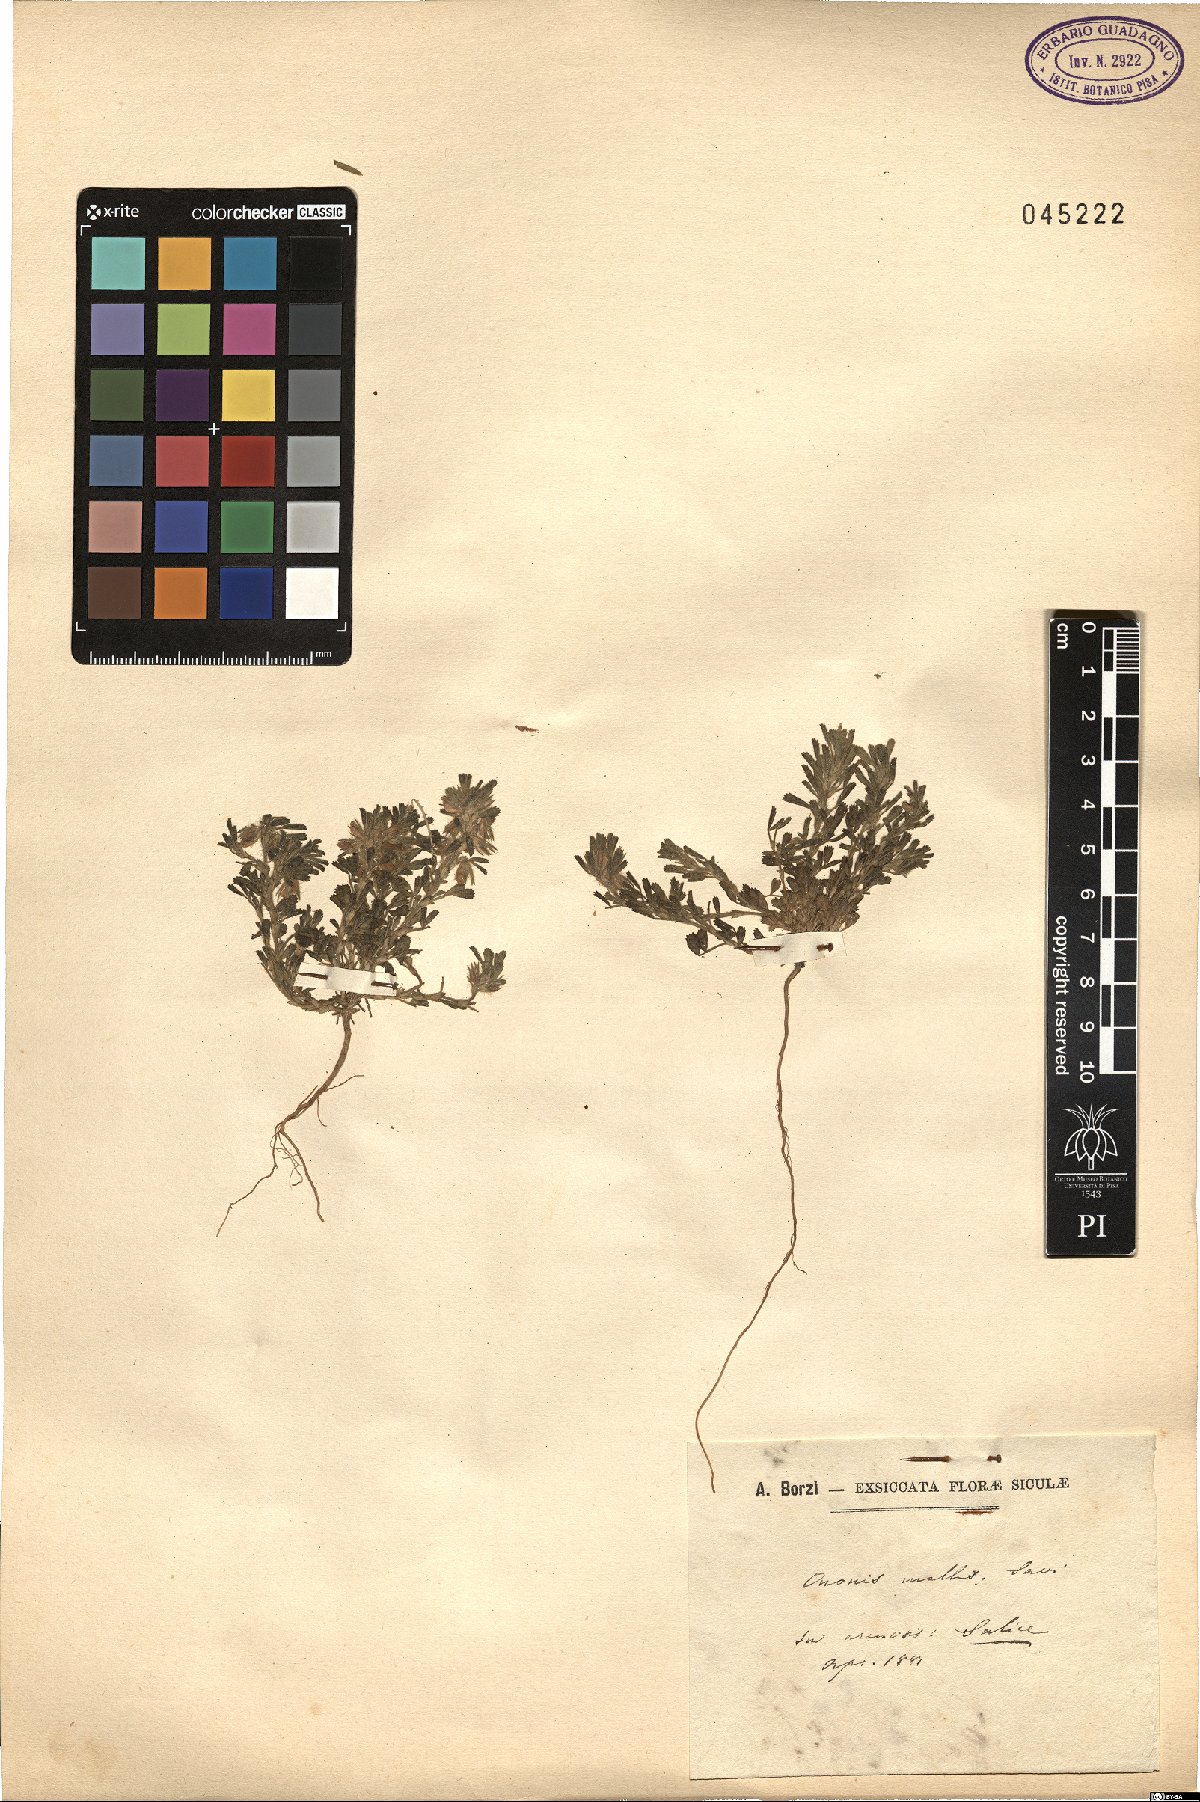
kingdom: Plantae
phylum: Tracheophyta
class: Magnoliopsida
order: Fabales
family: Fabaceae
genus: Ononis
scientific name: Ononis reclinata
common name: Small restharrow
